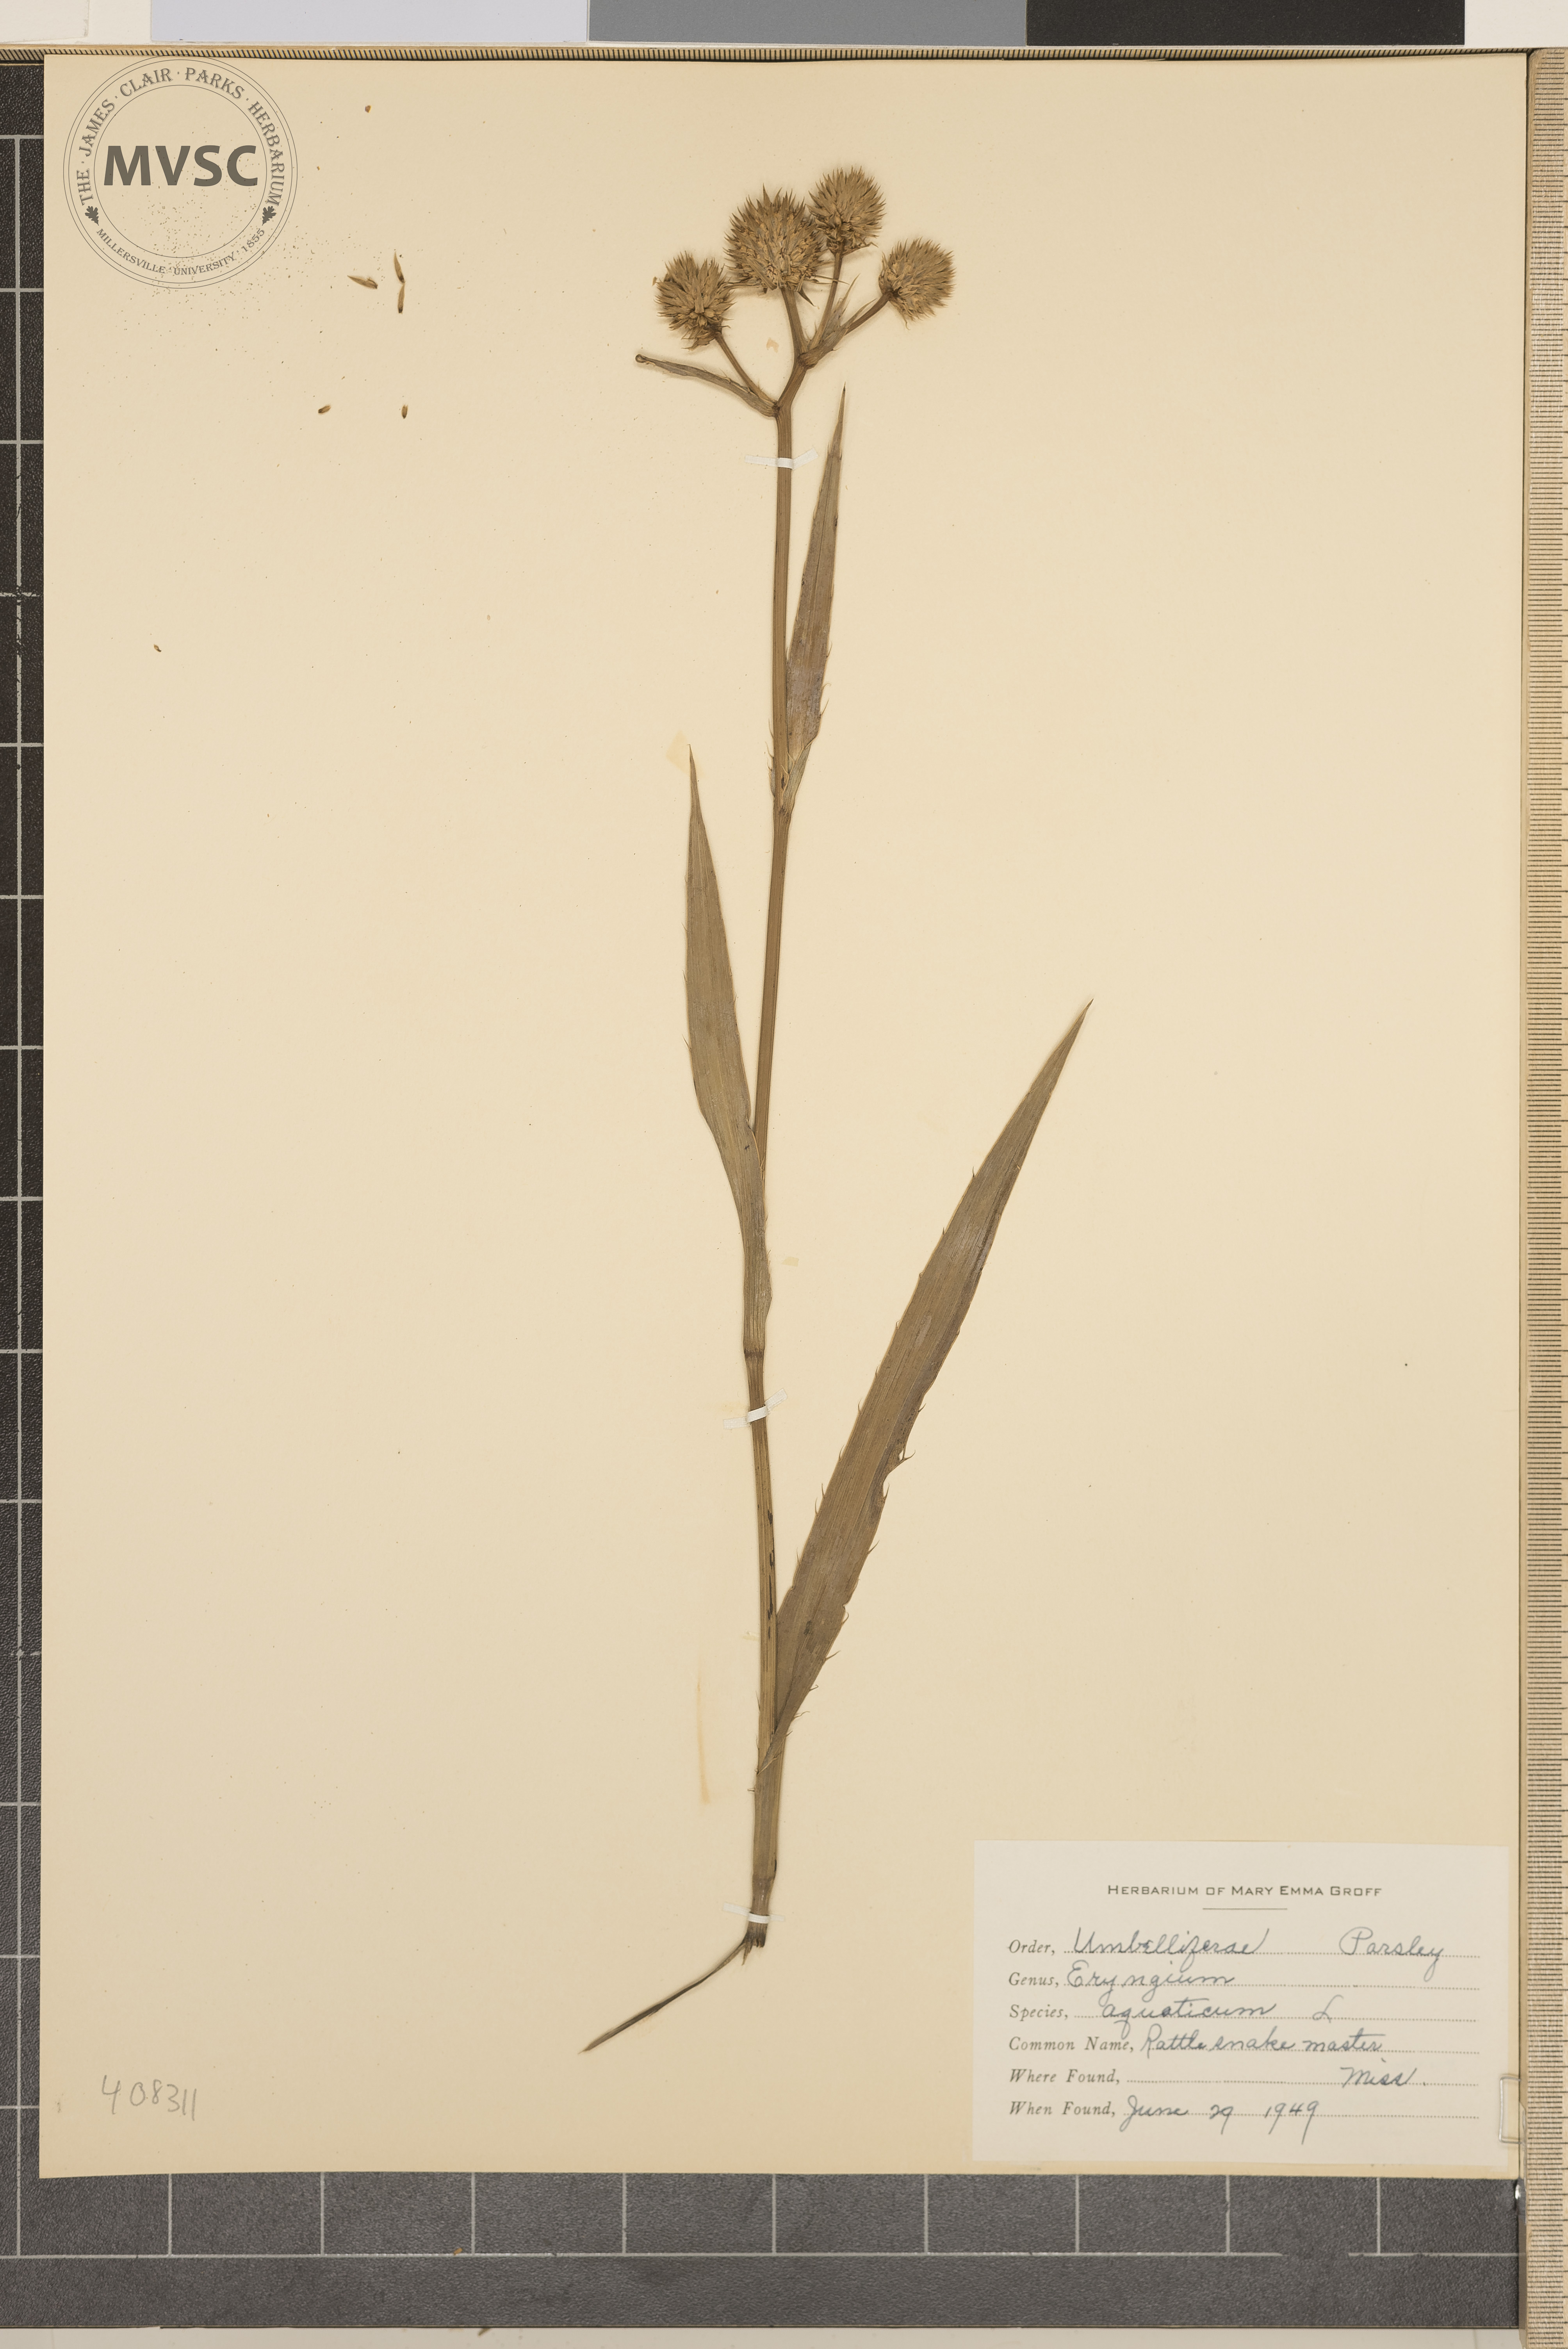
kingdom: Plantae
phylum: Tracheophyta
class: Magnoliopsida
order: Apiales
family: Apiaceae
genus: Eryngium
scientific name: Eryngium aquaticum
